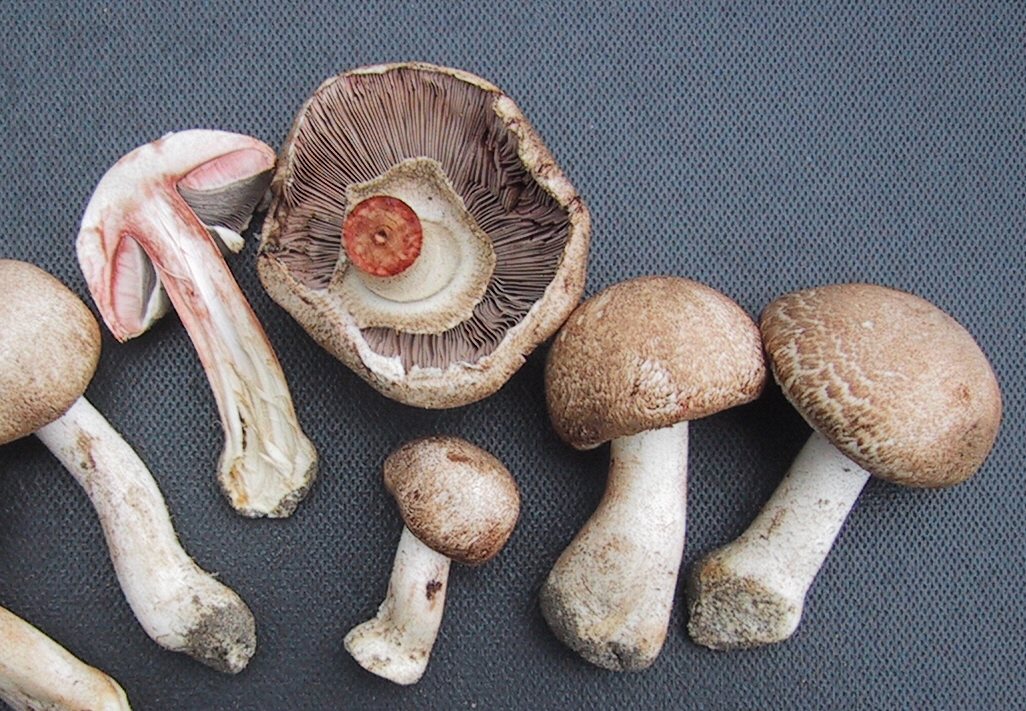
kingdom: Fungi
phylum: Basidiomycota
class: Agaricomycetes
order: Agaricales
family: Agaricaceae
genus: Agaricus
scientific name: Agaricus sylvaticus
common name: lille blod-champignon
